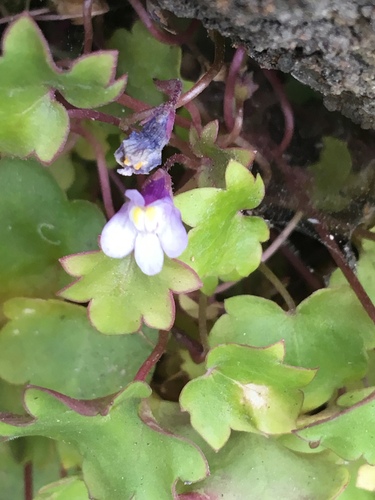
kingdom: Plantae
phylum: Tracheophyta
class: Magnoliopsida
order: Lamiales
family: Plantaginaceae
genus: Cymbalaria
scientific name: Cymbalaria muralis
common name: Ivy-leaved toadflax
